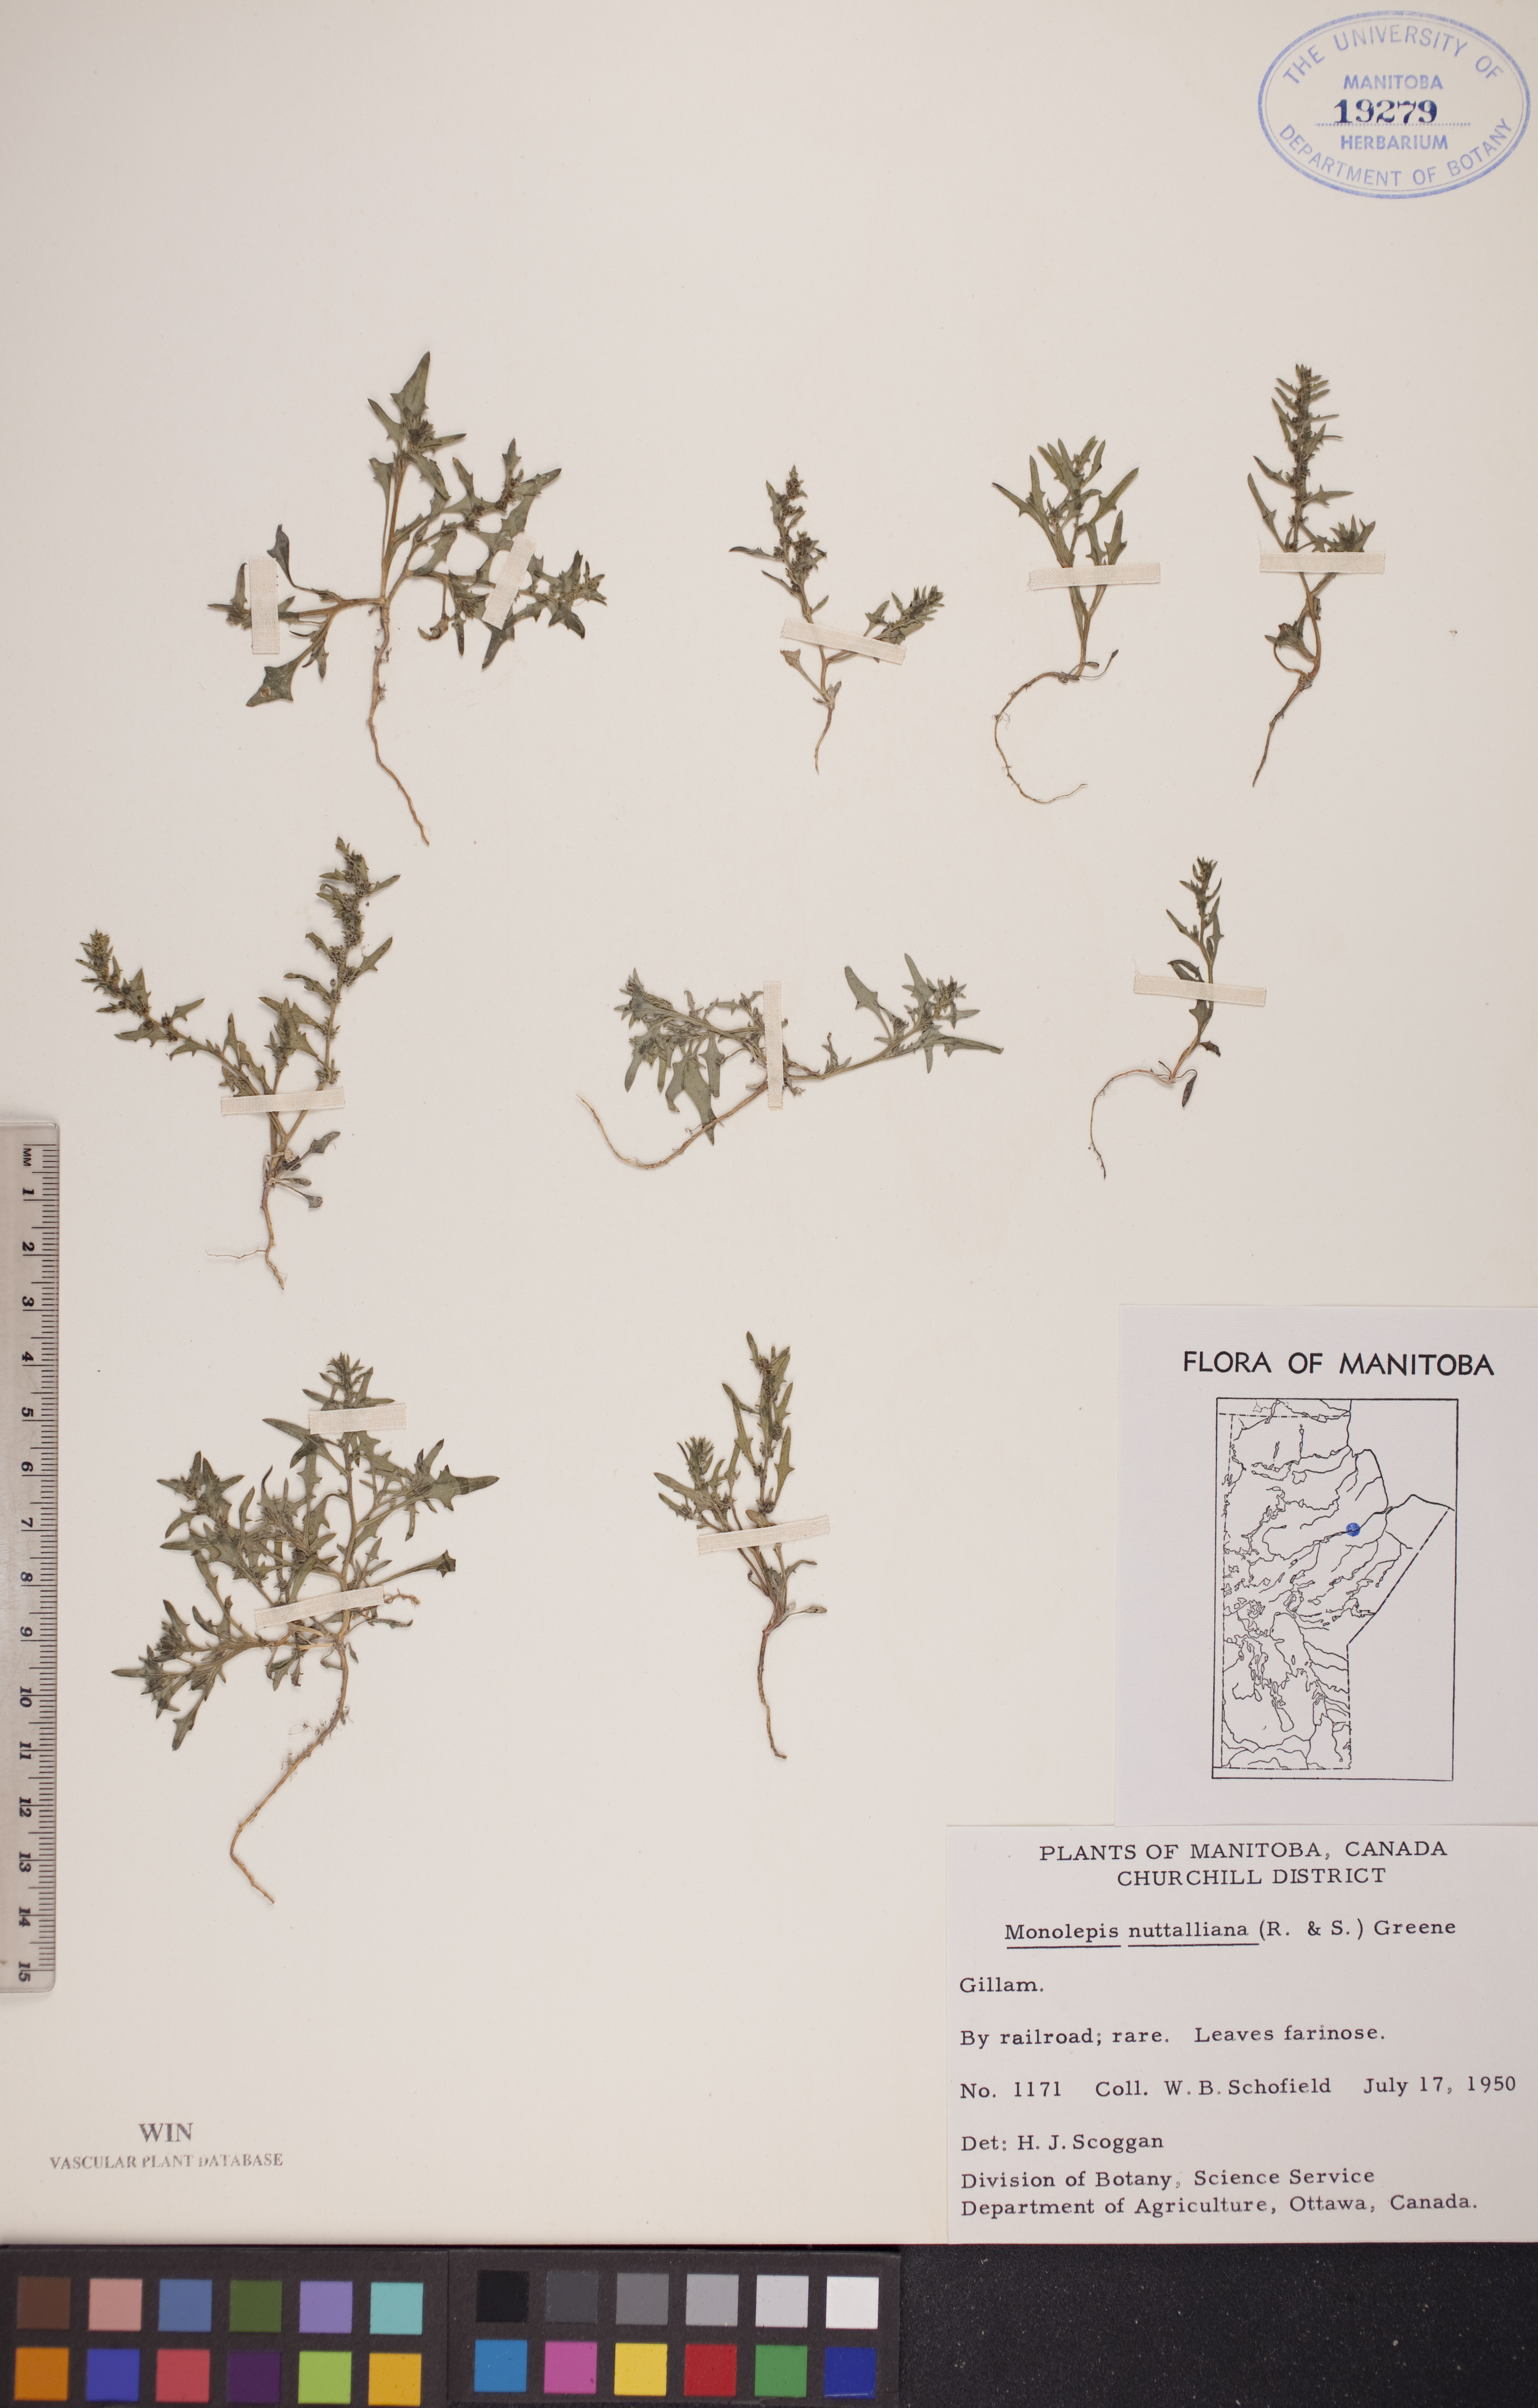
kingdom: Plantae
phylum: Tracheophyta
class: Magnoliopsida
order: Caryophyllales
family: Amaranthaceae
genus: Blitum
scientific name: Blitum nuttallianum
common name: Poverty-weed
